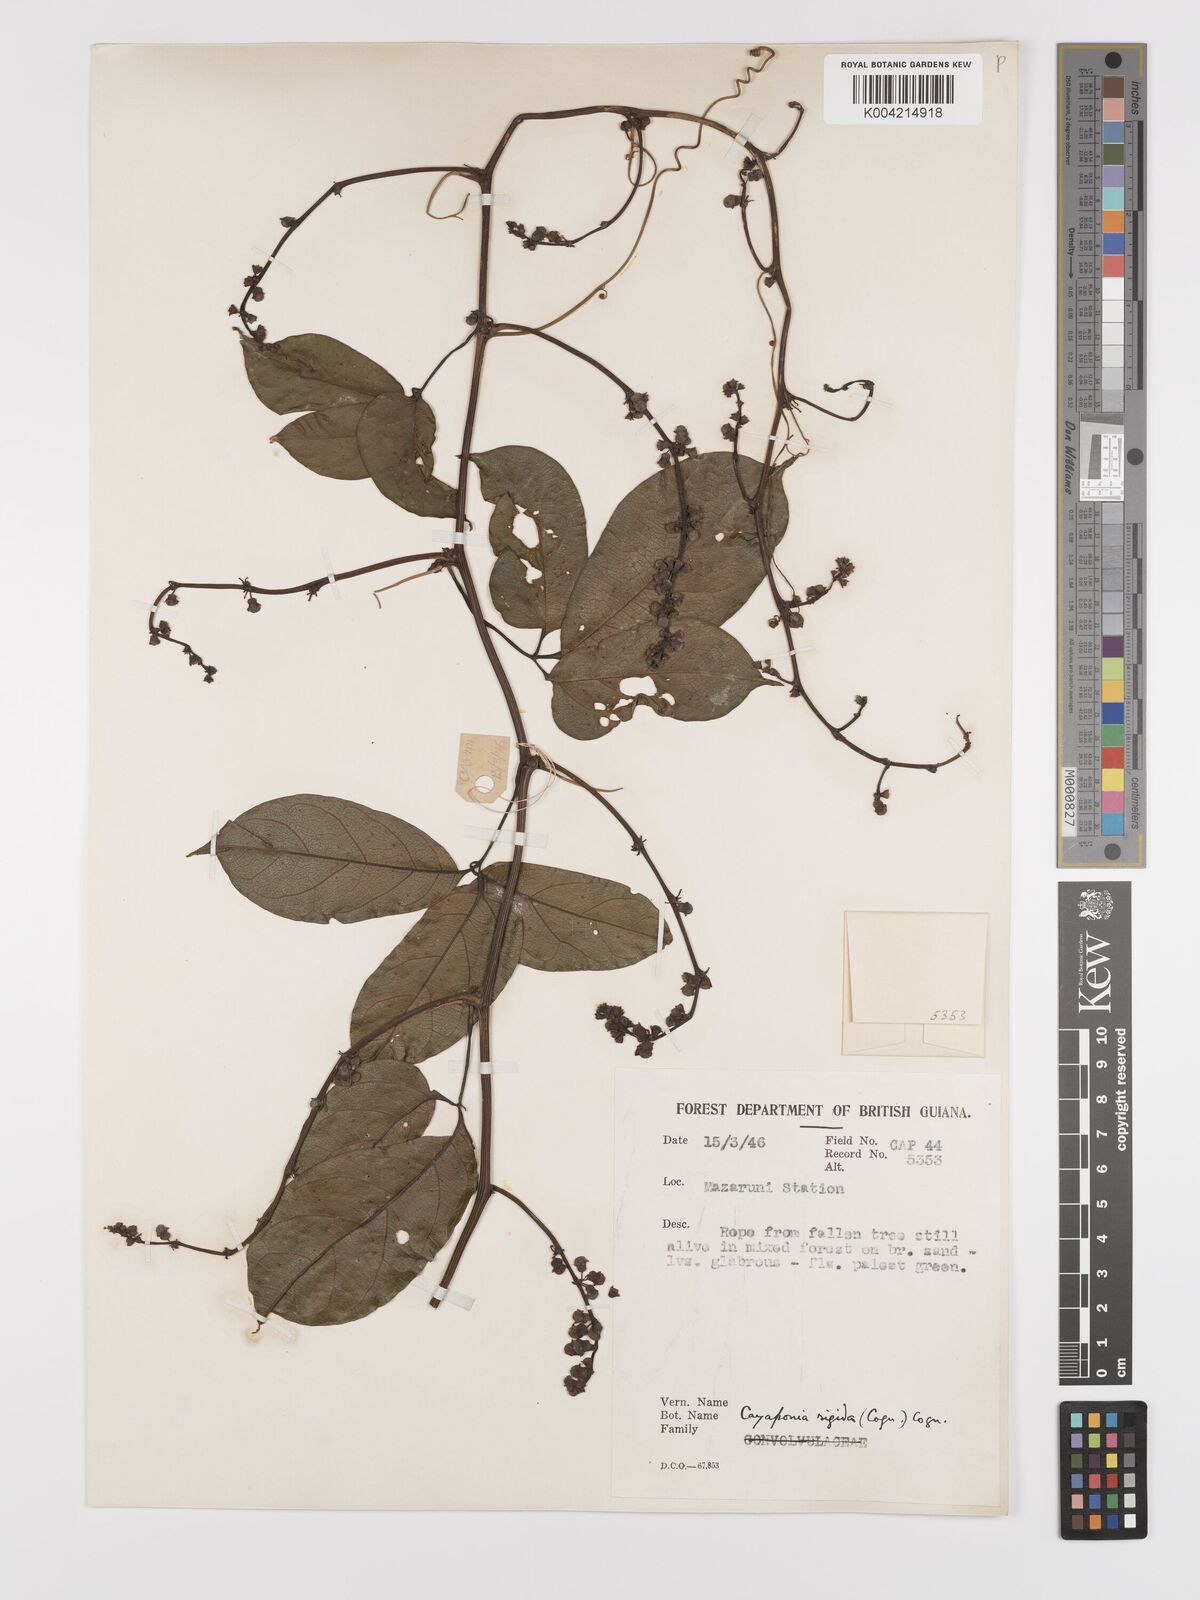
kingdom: Plantae
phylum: Tracheophyta
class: Magnoliopsida
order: Cucurbitales
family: Cucurbitaceae
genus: Cayaponia
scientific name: Cayaponia rigida
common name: Boskomkommer
